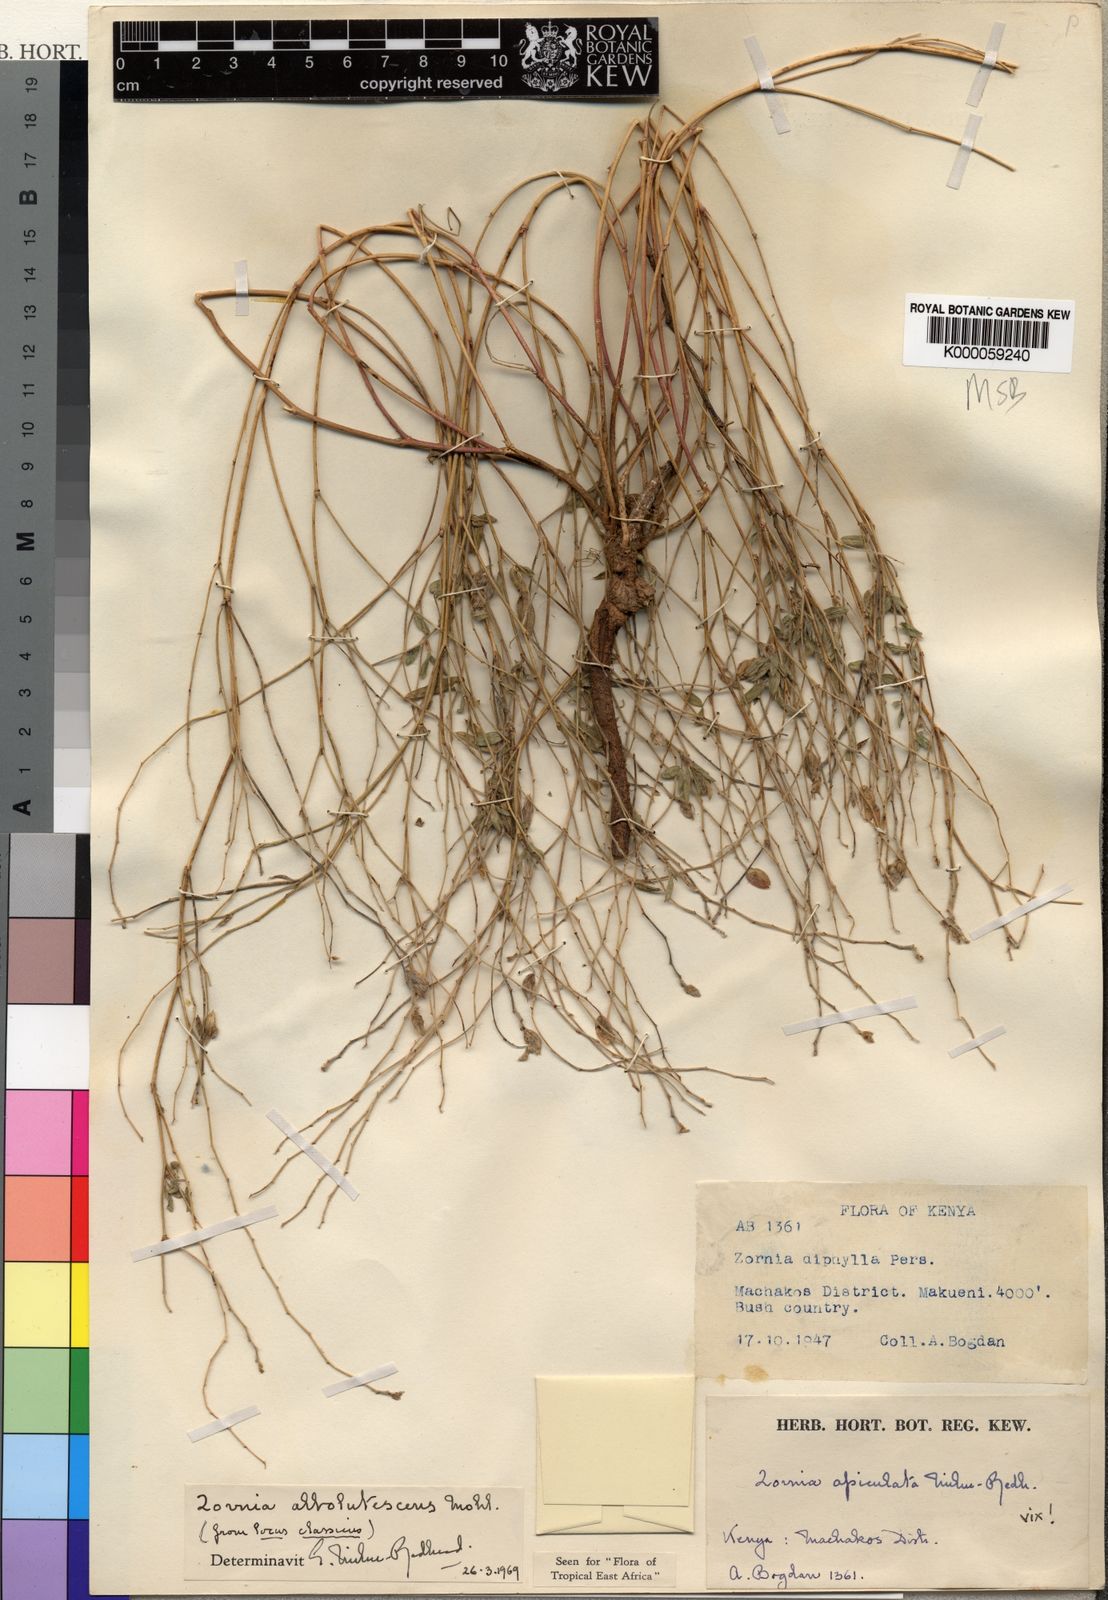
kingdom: Plantae
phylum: Tracheophyta
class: Magnoliopsida
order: Fabales
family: Fabaceae
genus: Zornia
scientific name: Zornia albolutescens
